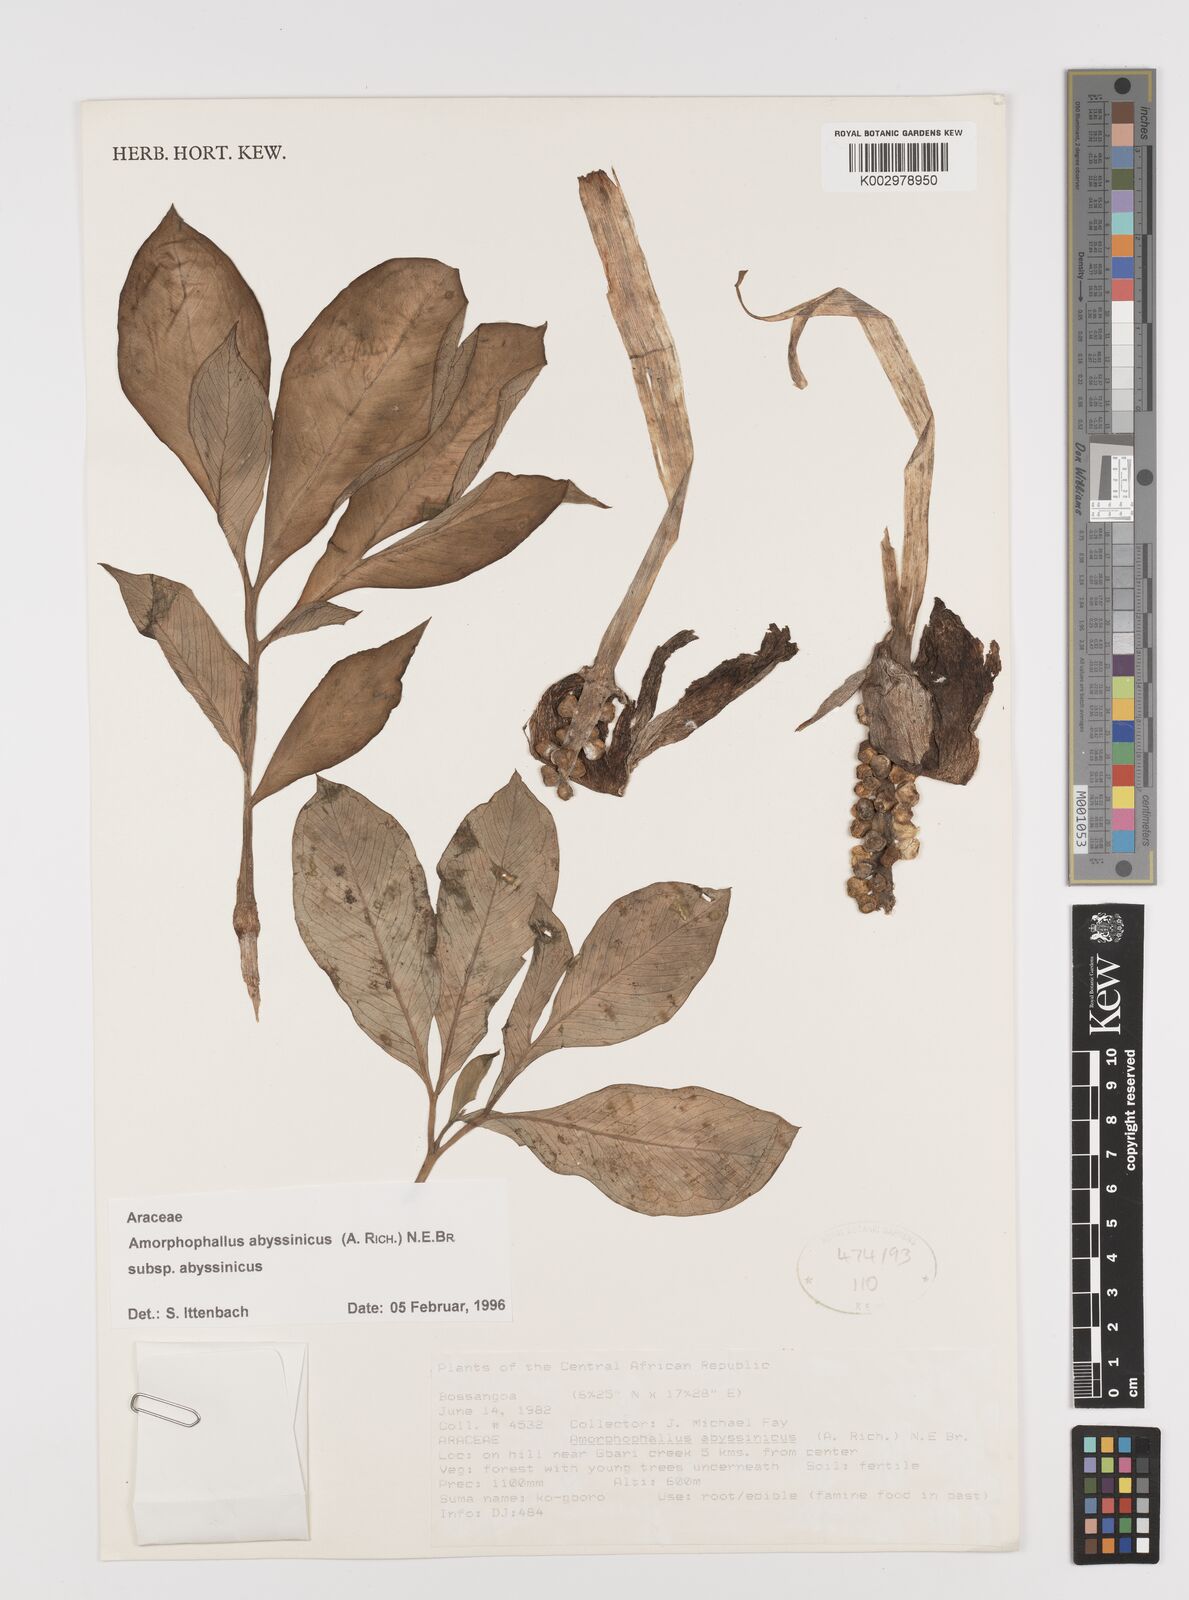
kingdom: Plantae
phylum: Tracheophyta
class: Liliopsida
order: Alismatales
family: Araceae
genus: Amorphophallus
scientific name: Amorphophallus abyssinicus
